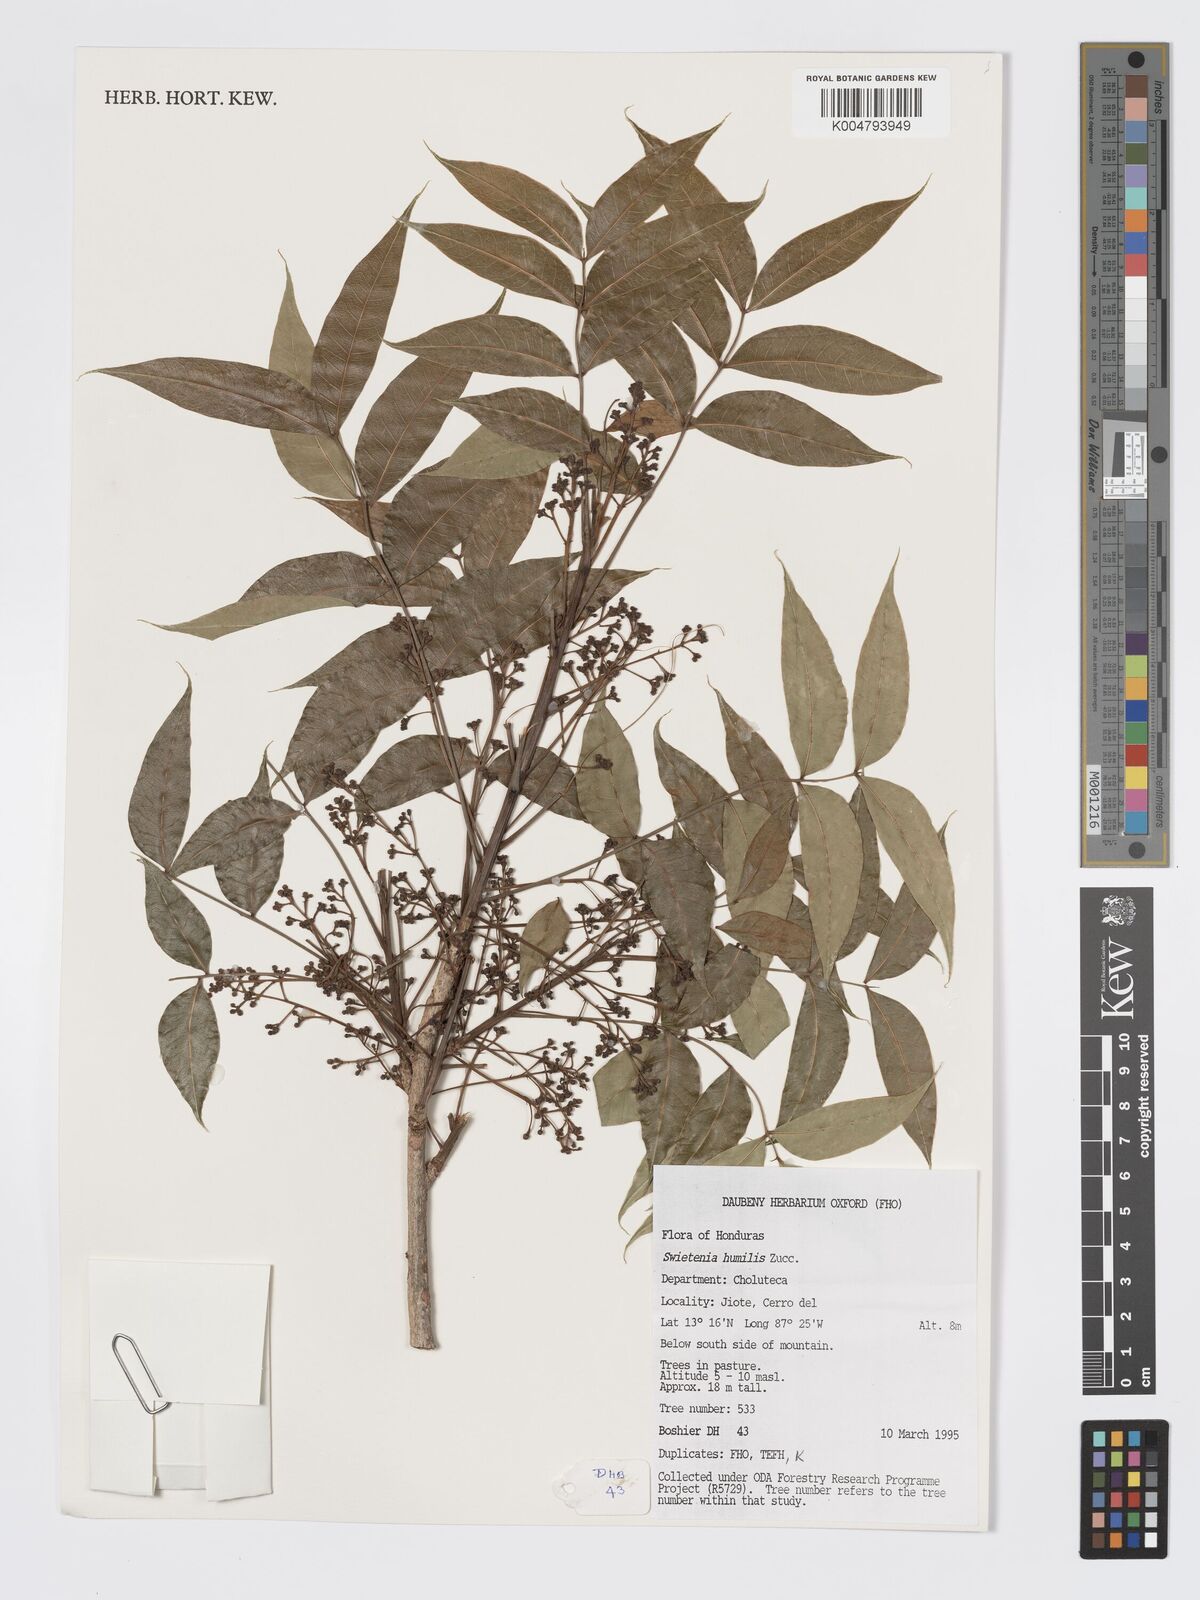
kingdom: Plantae
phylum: Tracheophyta
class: Magnoliopsida
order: Sapindales
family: Meliaceae
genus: Swietenia
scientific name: Swietenia humilis
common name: Pacific coast mahogany
